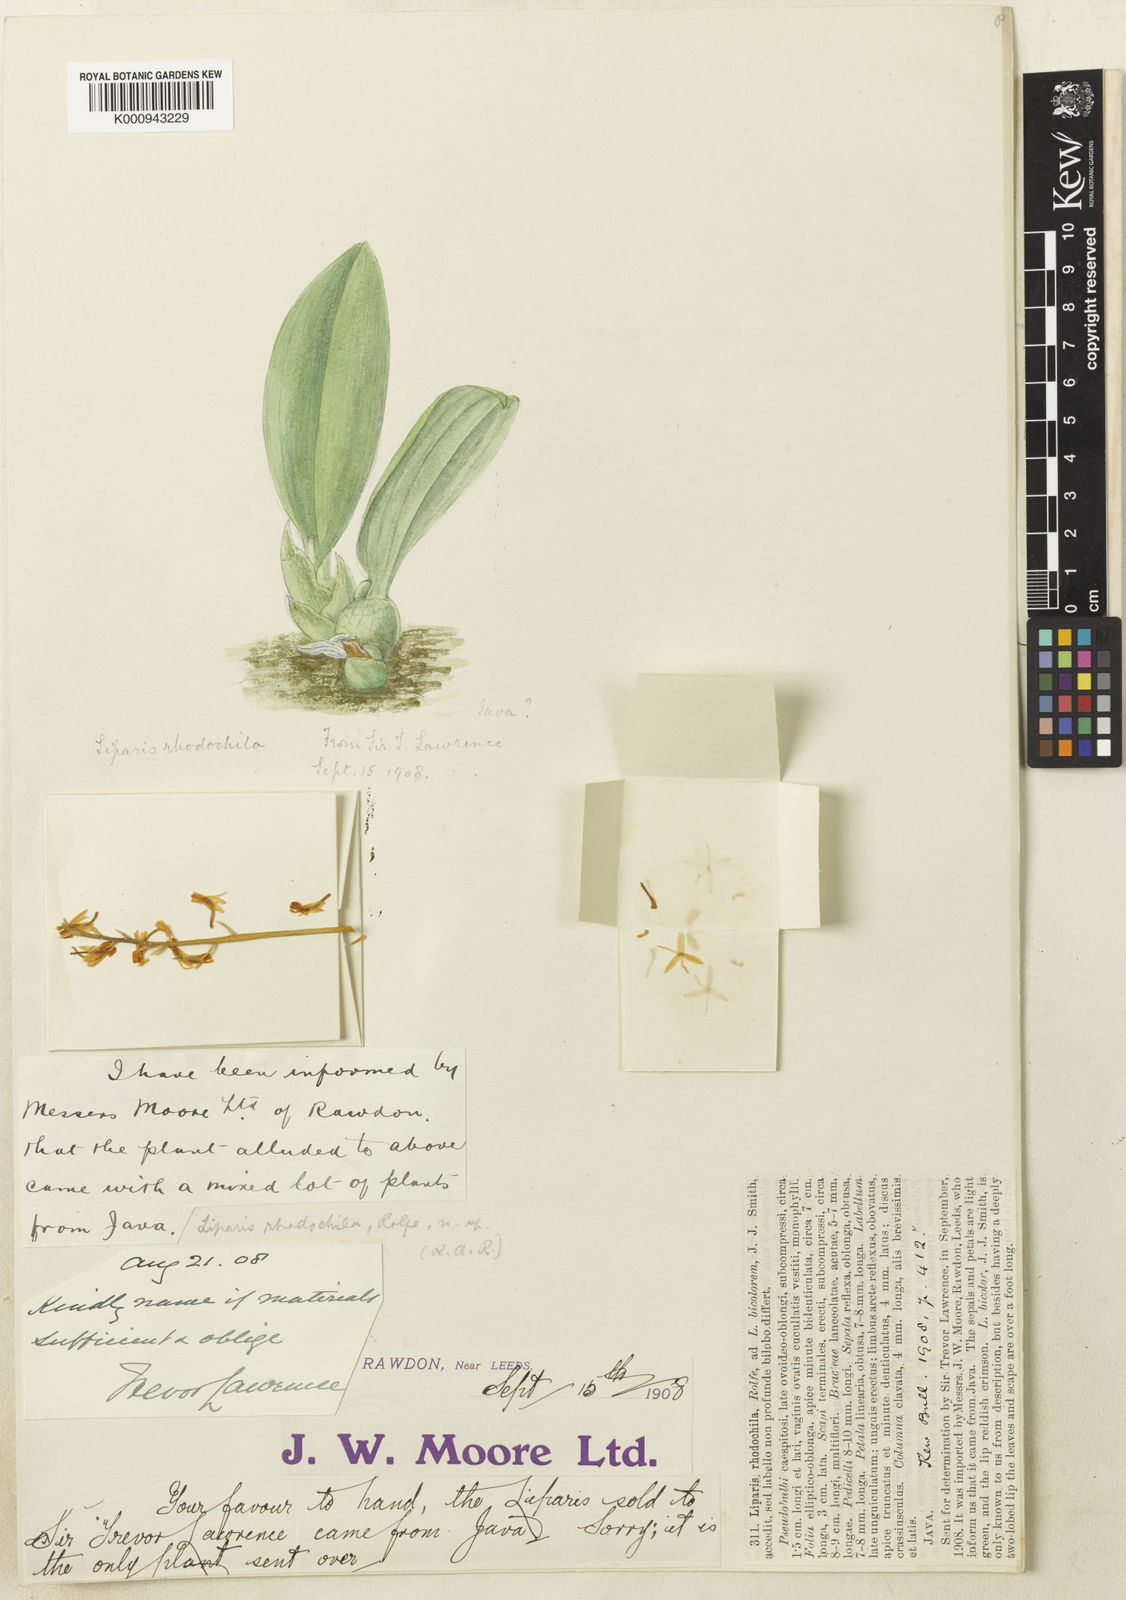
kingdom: Plantae
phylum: Tracheophyta
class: Liliopsida
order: Asparagales
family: Orchidaceae
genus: Liparis
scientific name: Liparis rhodochila
